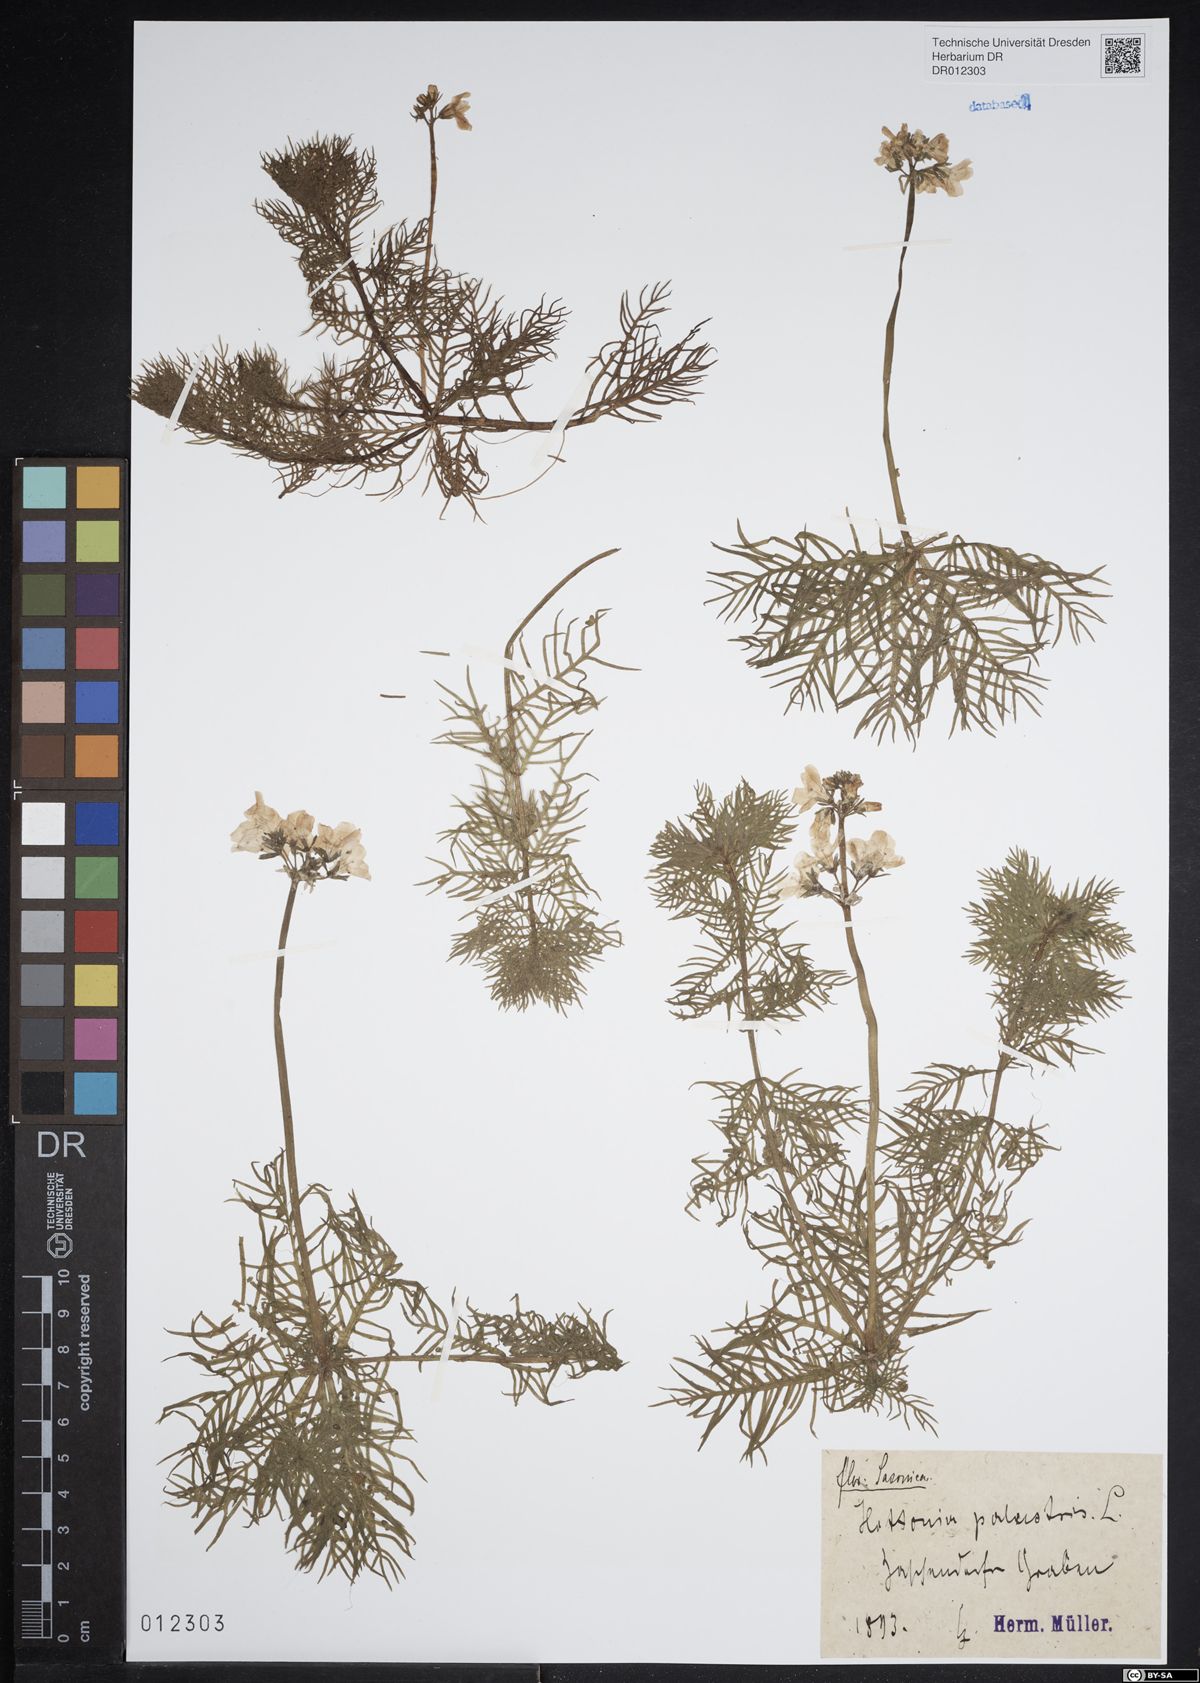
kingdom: Plantae
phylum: Tracheophyta
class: Magnoliopsida
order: Ericales
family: Primulaceae
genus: Hottonia
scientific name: Hottonia palustris
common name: Water-violet
